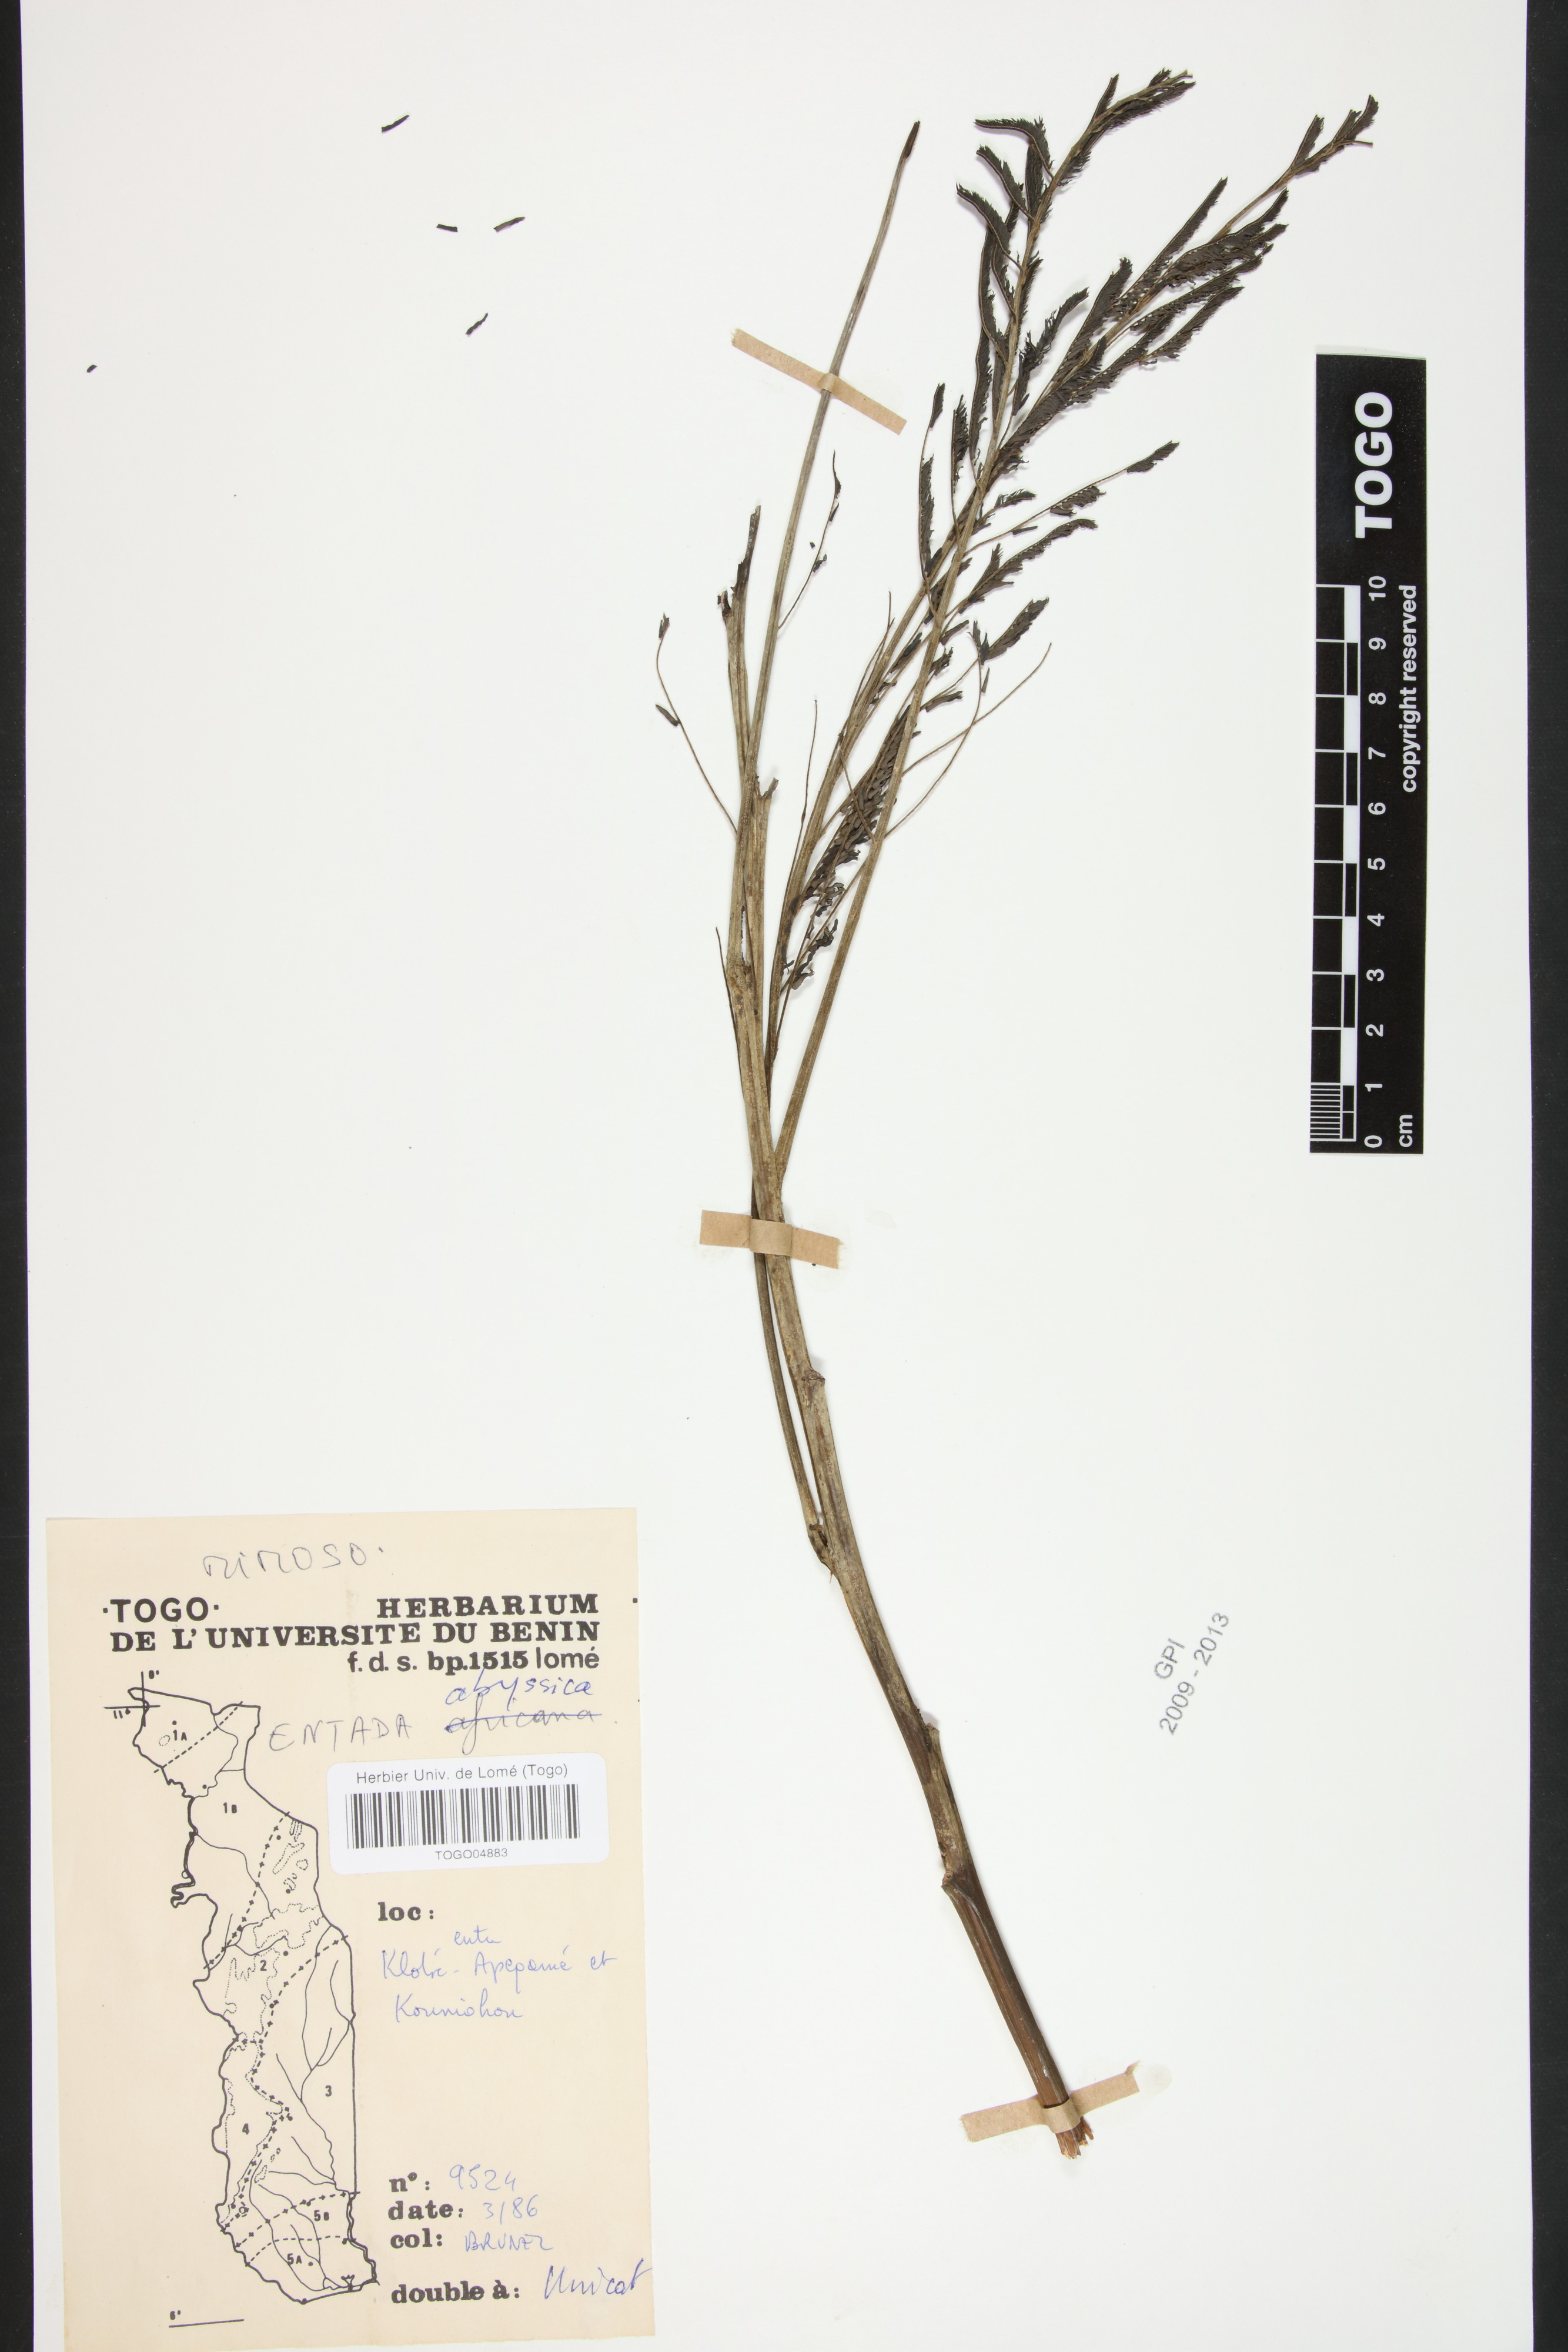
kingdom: Plantae
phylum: Tracheophyta
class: Magnoliopsida
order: Fabales
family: Fabaceae
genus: Entada
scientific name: Entada abyssinica
